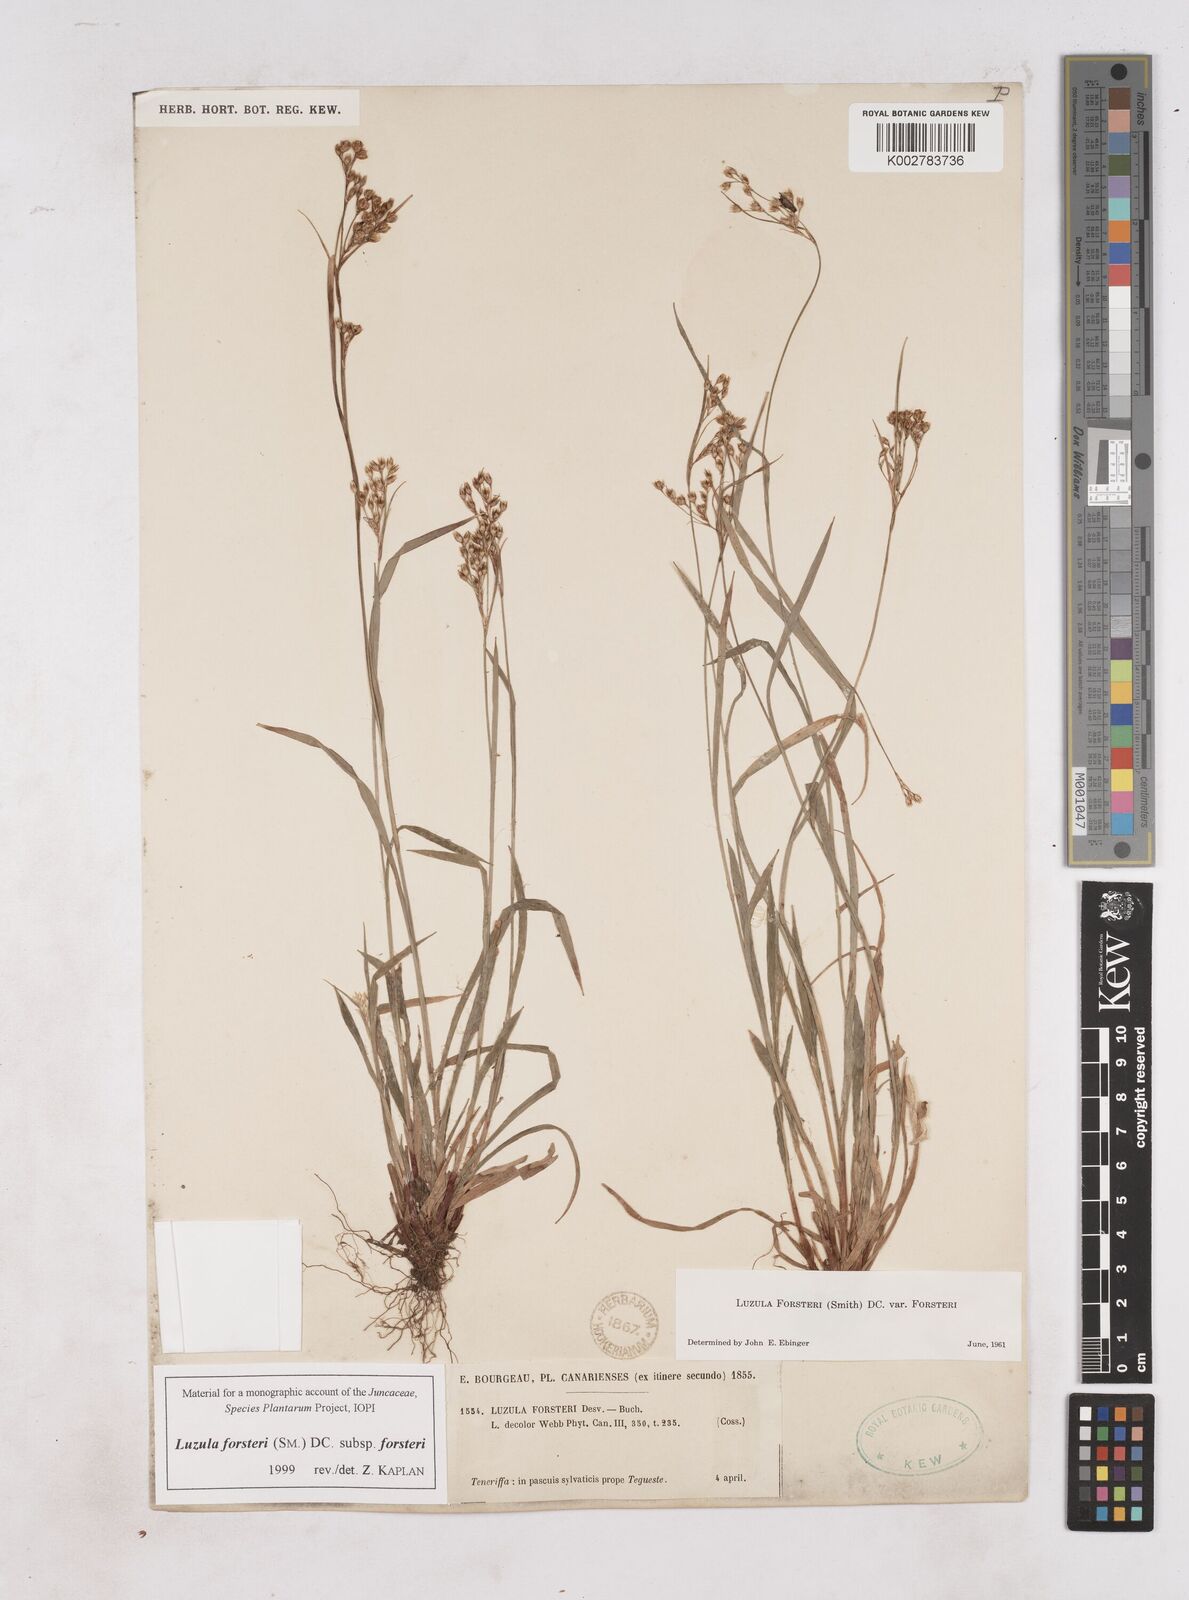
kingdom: Plantae
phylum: Tracheophyta
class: Liliopsida
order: Poales
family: Juncaceae
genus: Luzula
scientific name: Luzula forsteri
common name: Southern wood-rush
